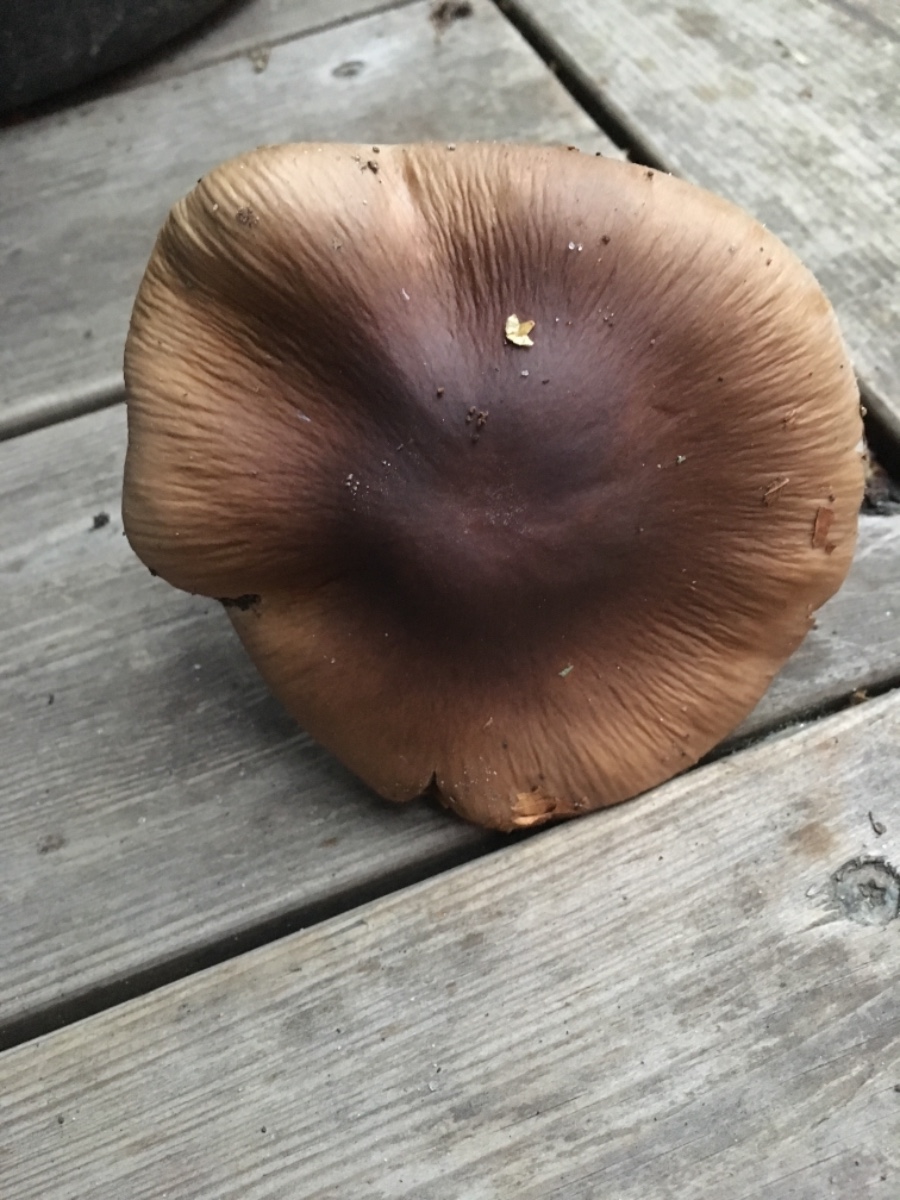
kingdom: Fungi
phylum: Basidiomycota
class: Agaricomycetes
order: Agaricales
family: Cortinariaceae
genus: Cortinarius
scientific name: Cortinarius elatior
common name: høj slørhat
